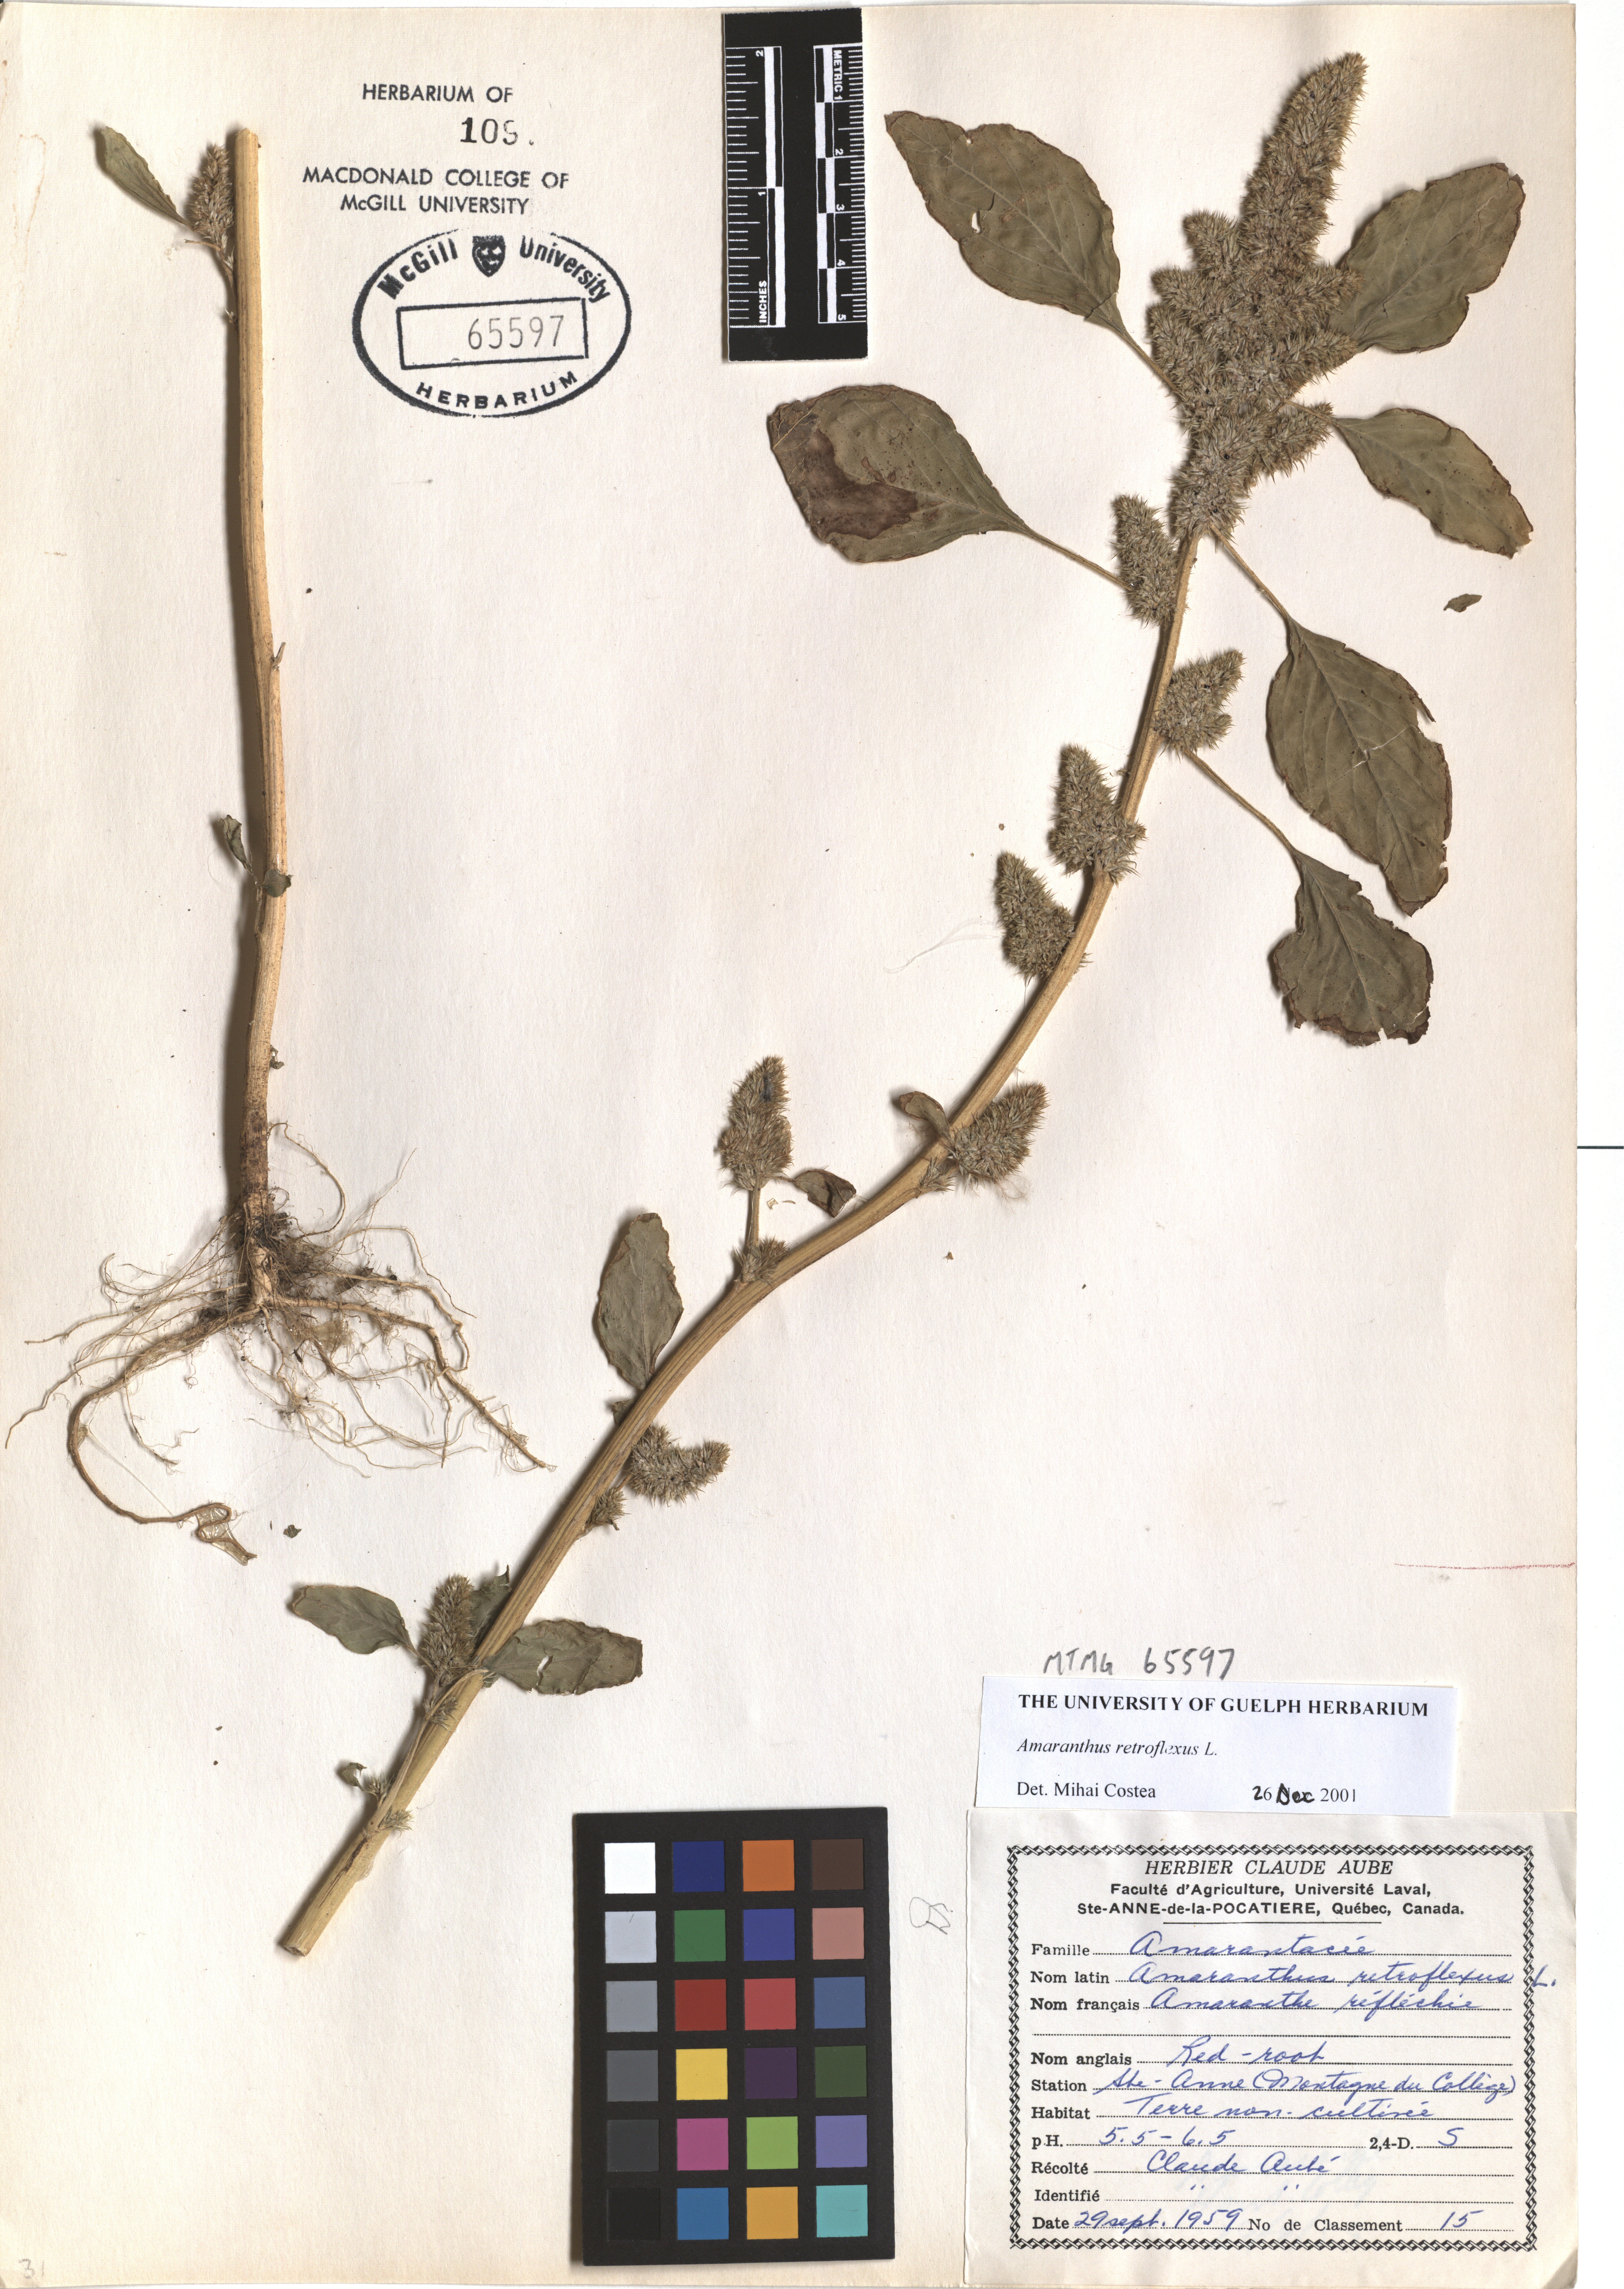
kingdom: Plantae
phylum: Tracheophyta
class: Magnoliopsida
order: Caryophyllales
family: Amaranthaceae
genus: Amaranthus
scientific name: Amaranthus retroflexus
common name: Redroot amaranth
